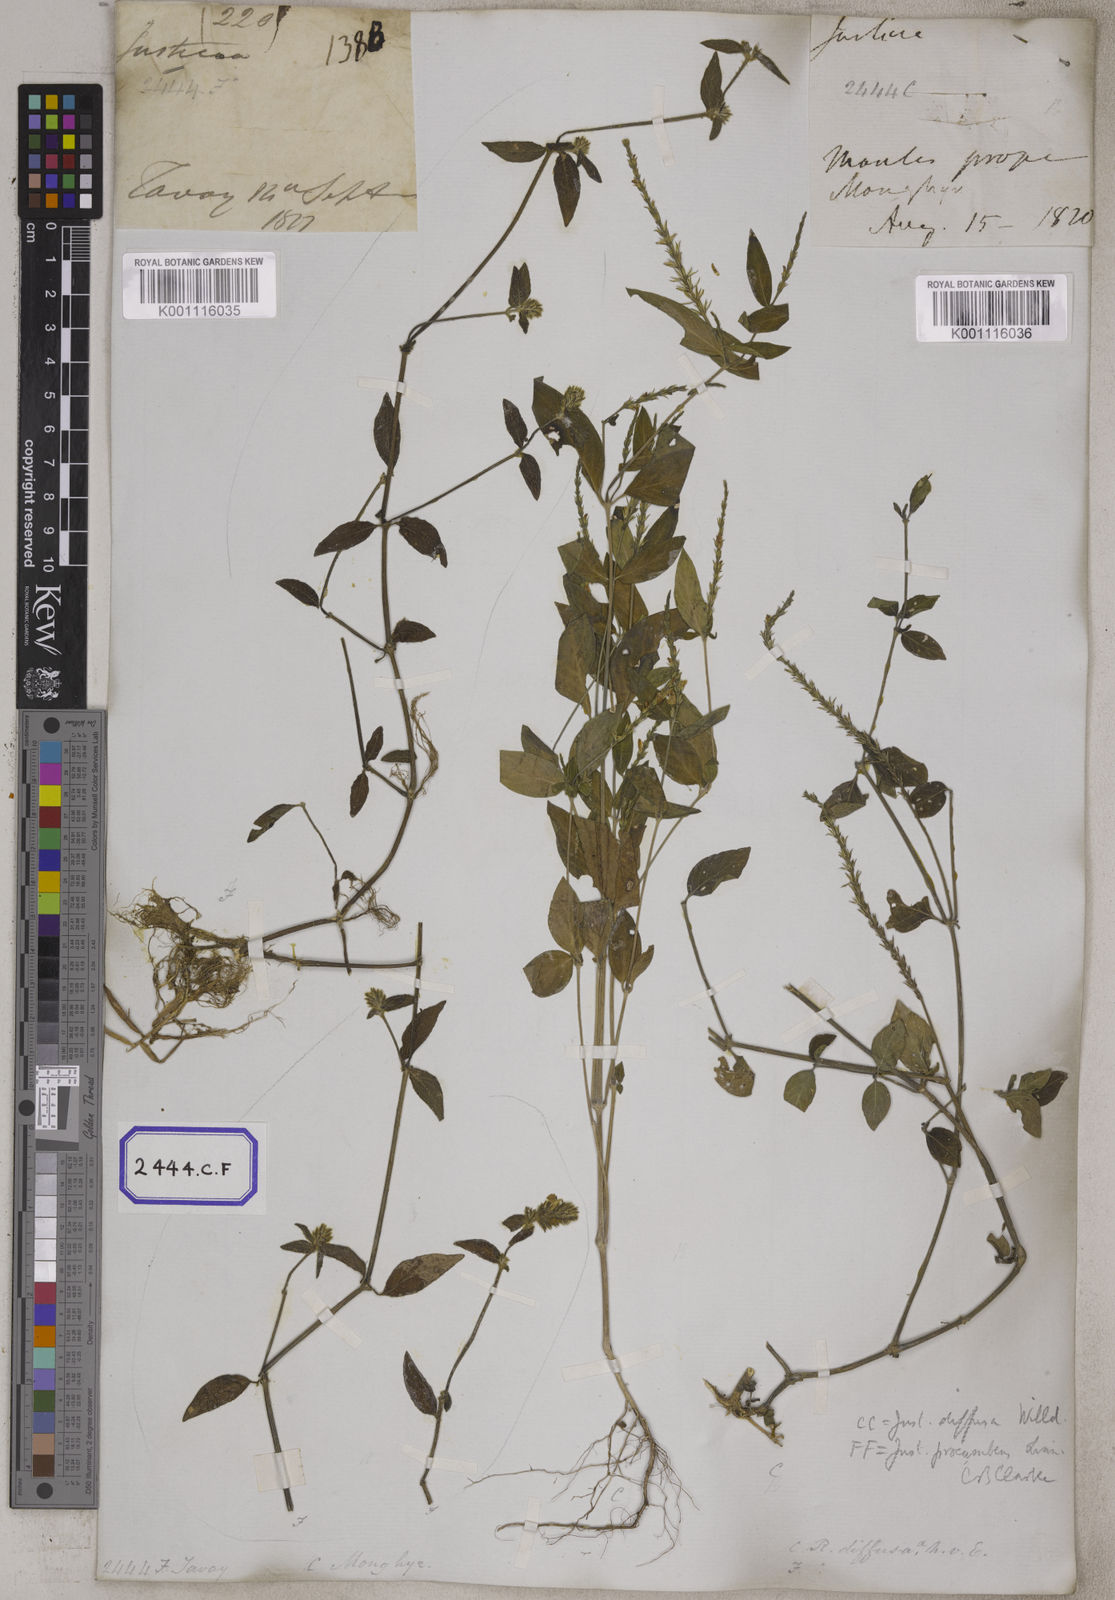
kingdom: Plantae
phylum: Tracheophyta
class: Magnoliopsida
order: Lamiales
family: Acanthaceae
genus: Justicia
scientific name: Justicia
